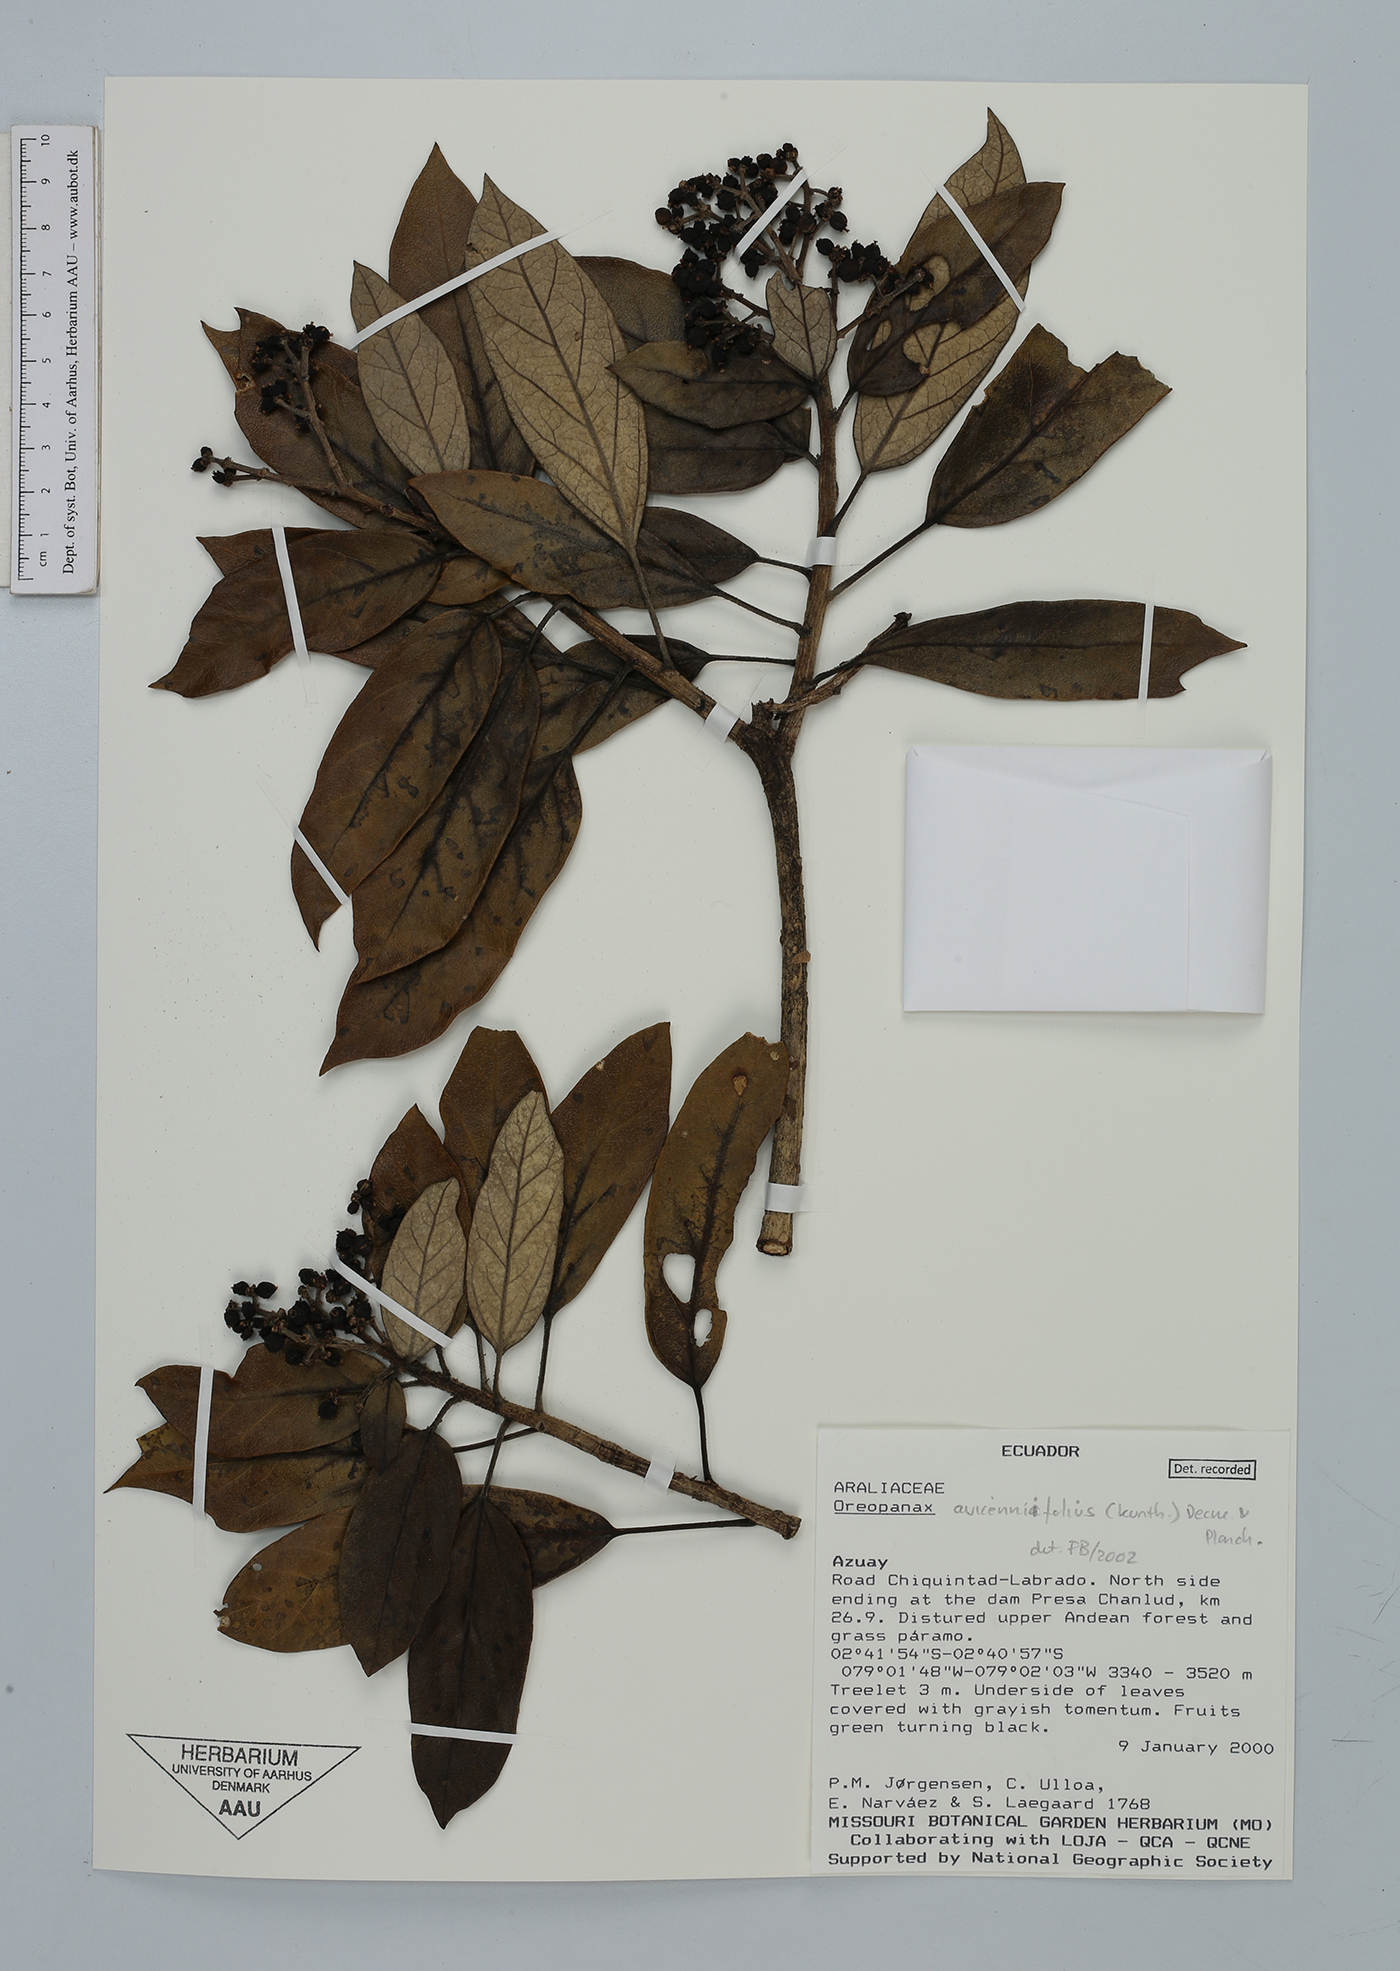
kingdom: Plantae
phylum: Tracheophyta
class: Magnoliopsida
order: Apiales
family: Araliaceae
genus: Oreopanax
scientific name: Oreopanax avicenniifolius
